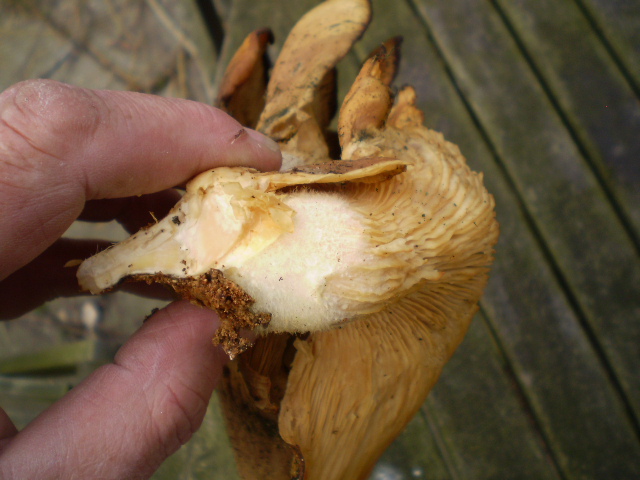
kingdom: Fungi
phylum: Basidiomycota
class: Agaricomycetes
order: Agaricales
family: Pleurotaceae
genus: Pleurotus
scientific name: Pleurotus ostreatus
